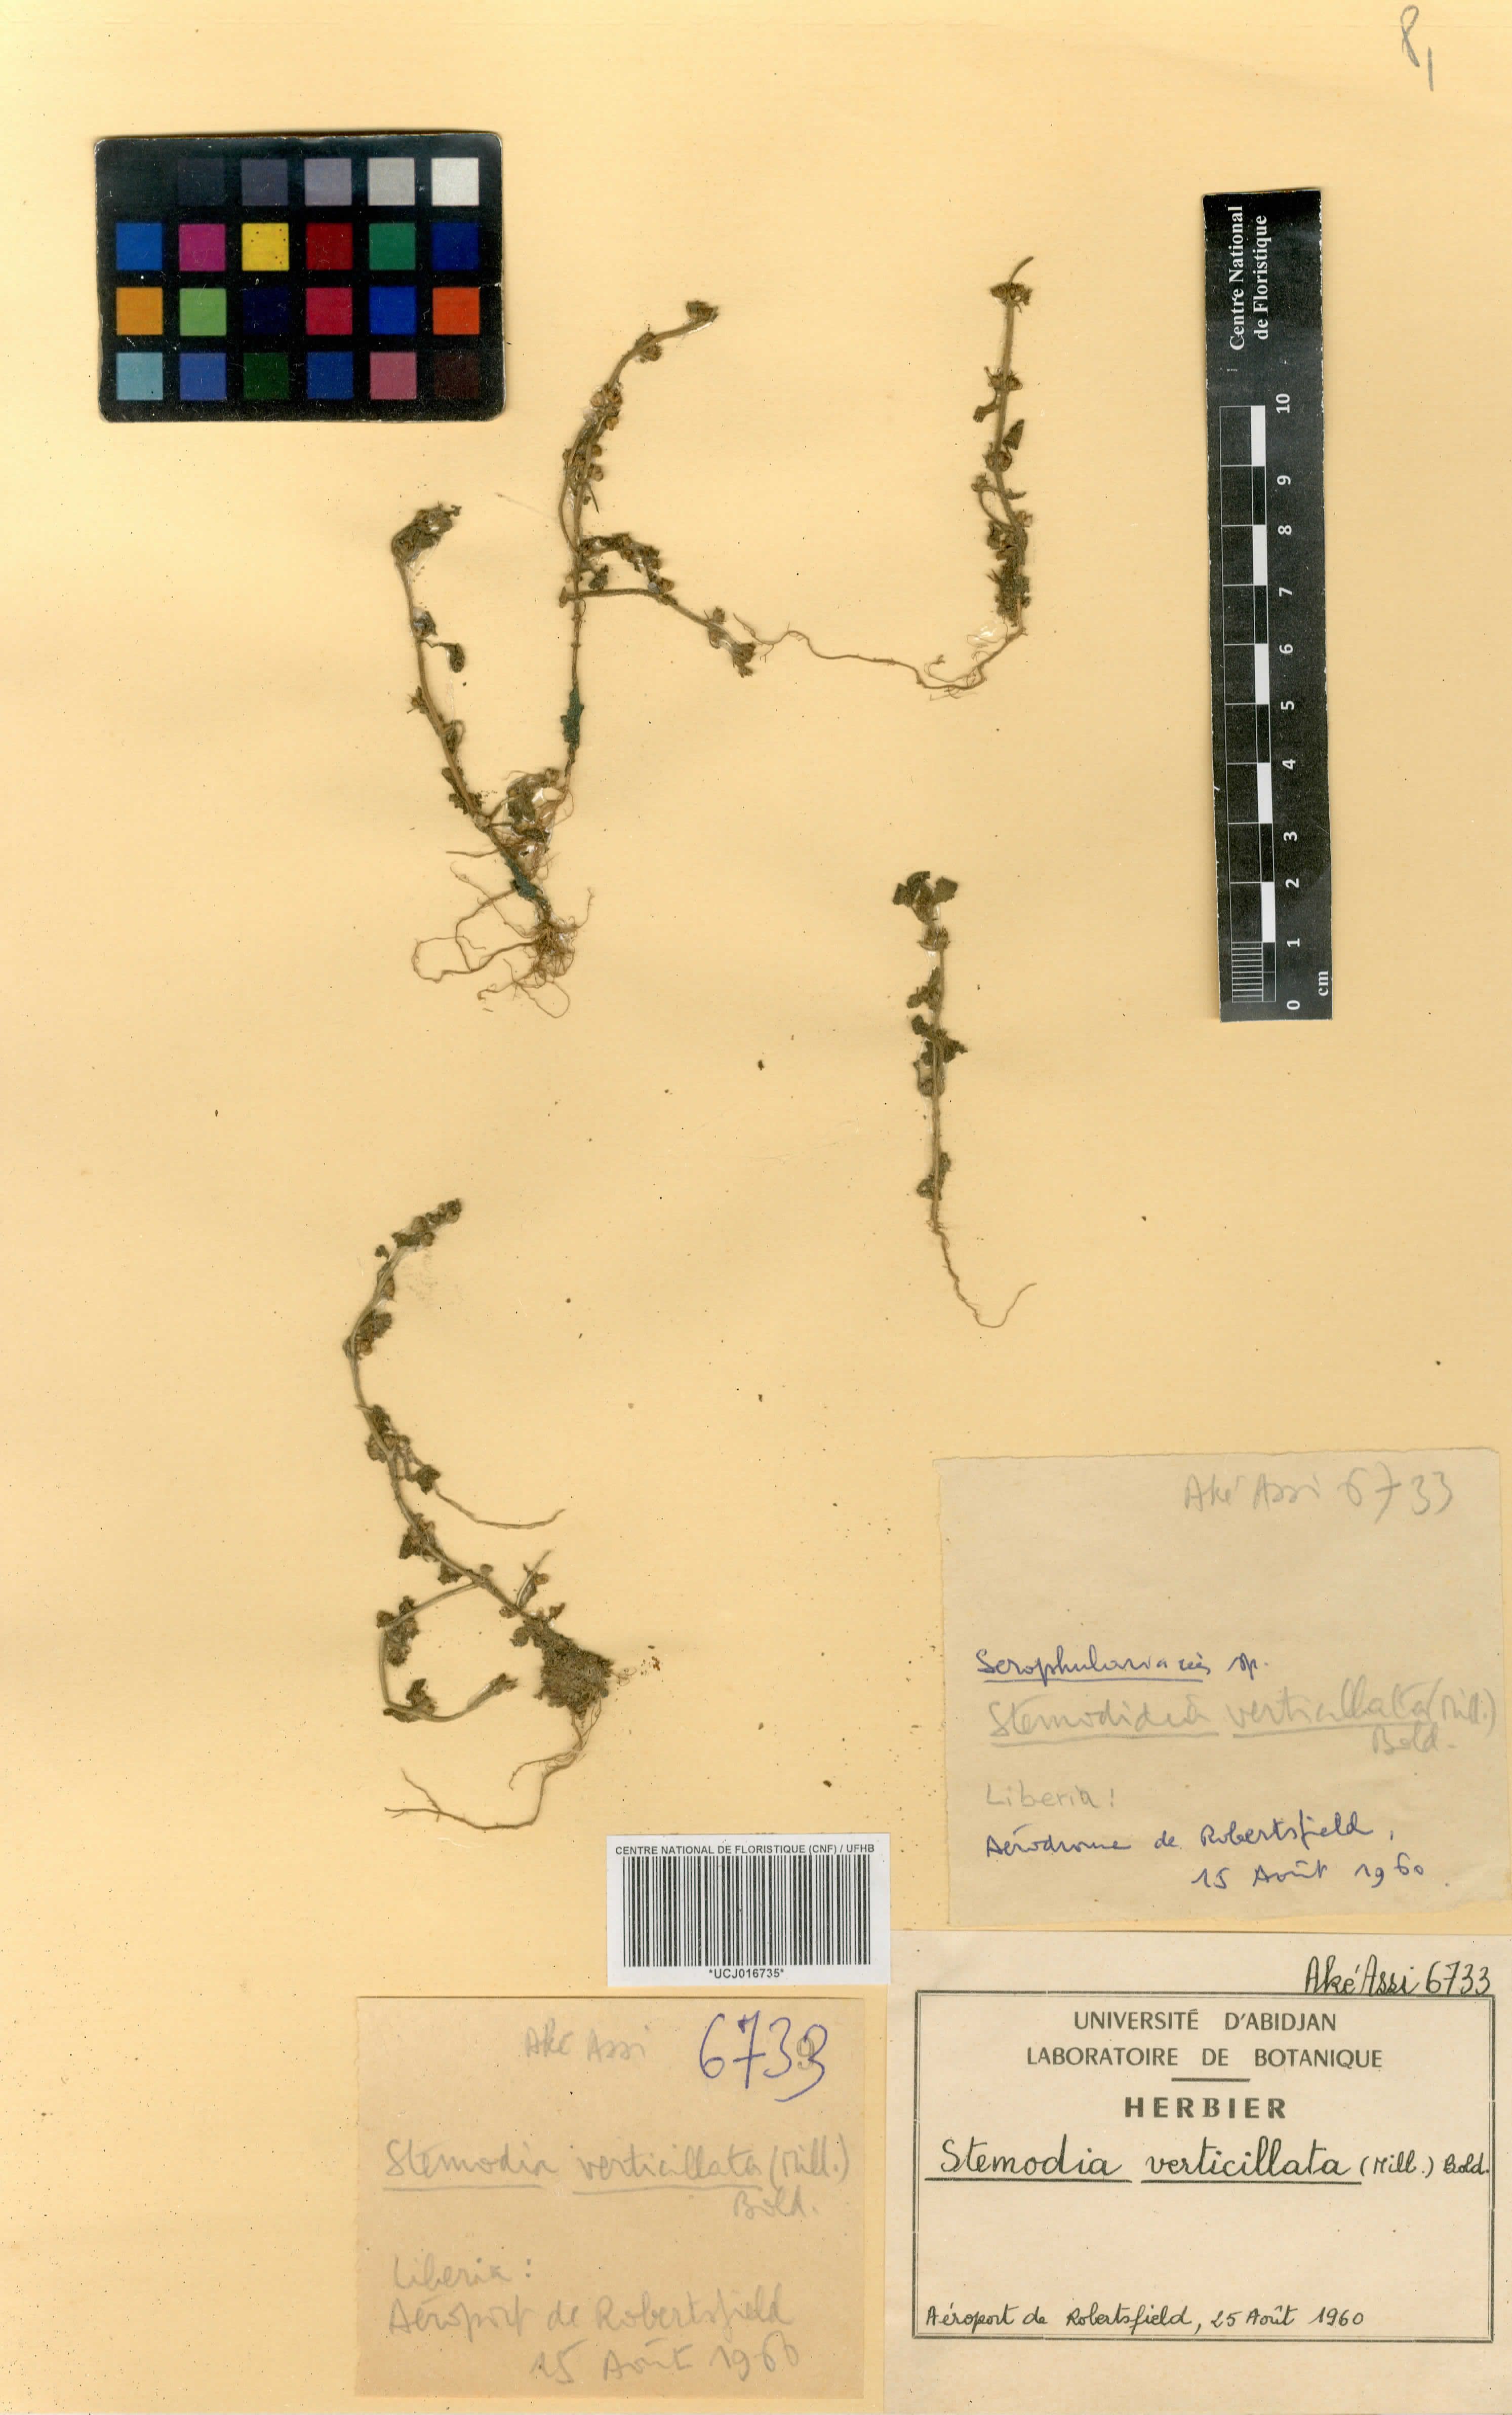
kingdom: Plantae
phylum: Tracheophyta
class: Magnoliopsida
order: Lamiales
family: Plantaginaceae
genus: Stemodia
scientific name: Stemodia verticillata
